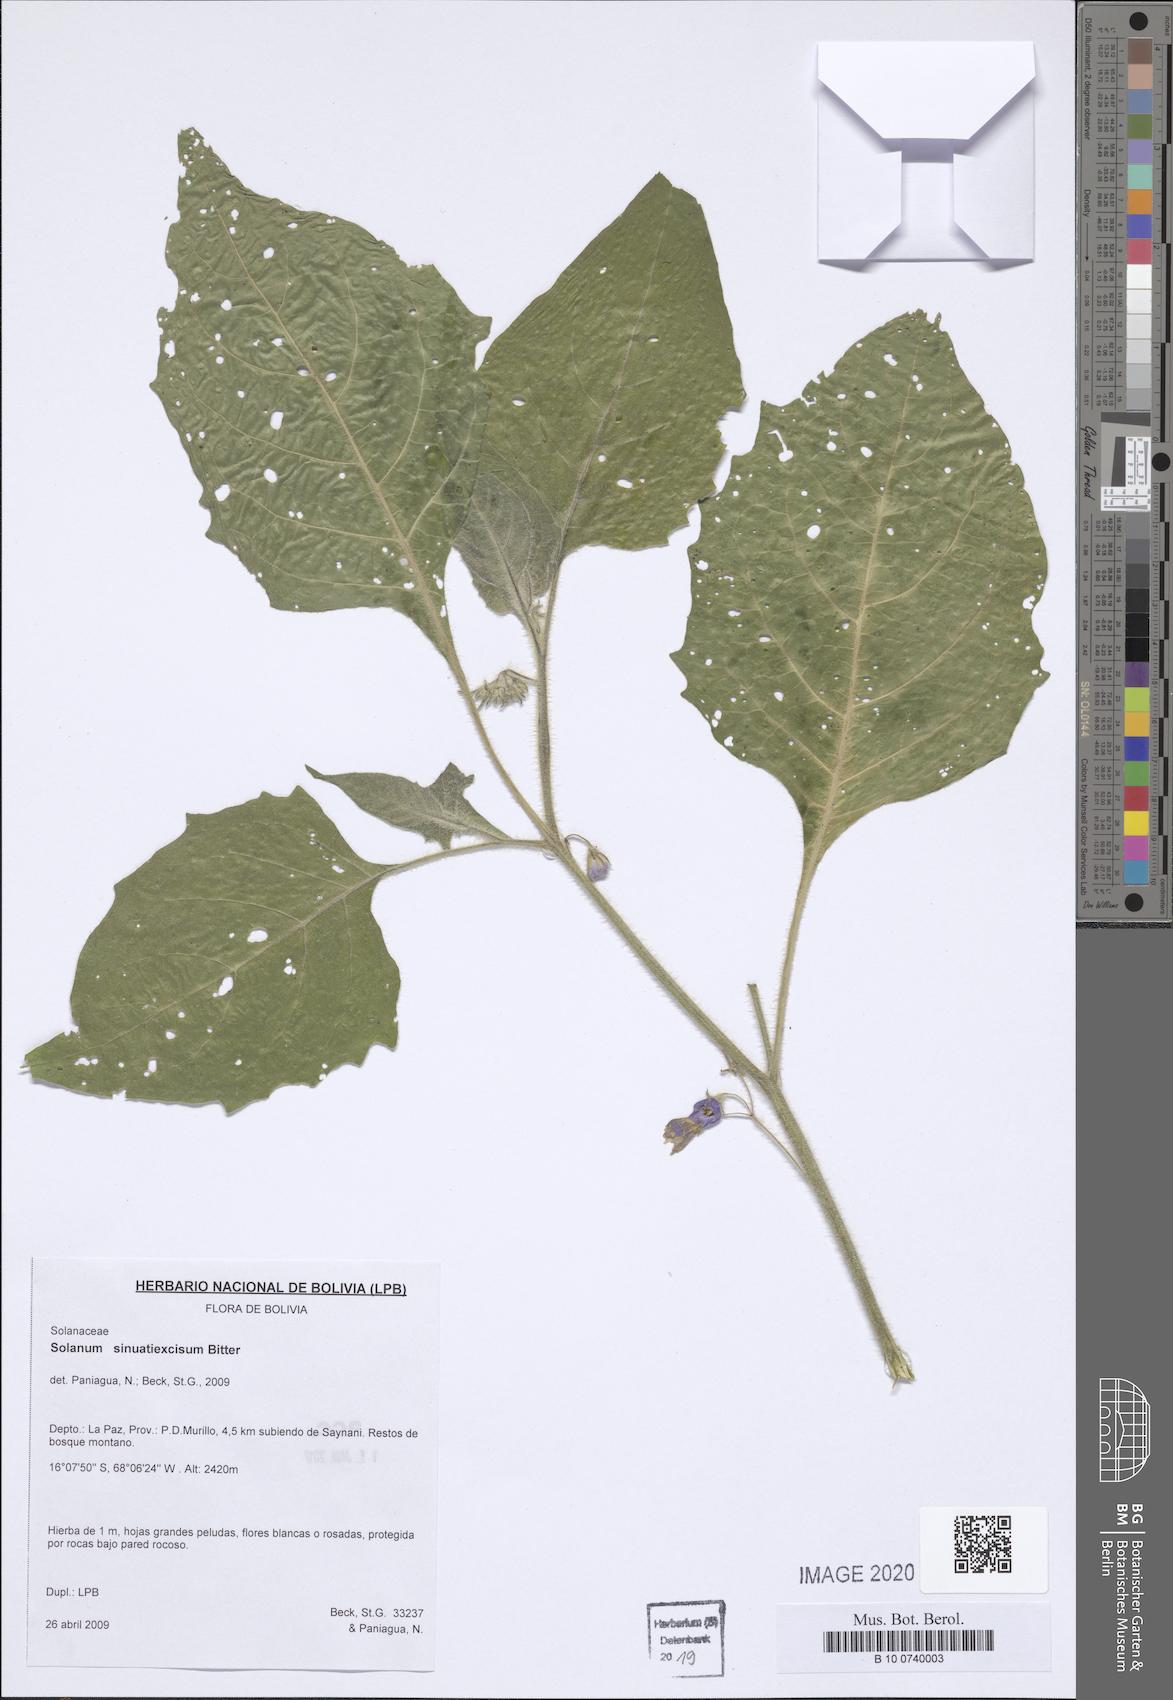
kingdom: Plantae
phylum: Tracheophyta
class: Magnoliopsida
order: Solanales
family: Solanaceae
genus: Solanum
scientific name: Solanum sinuatiexcisum
